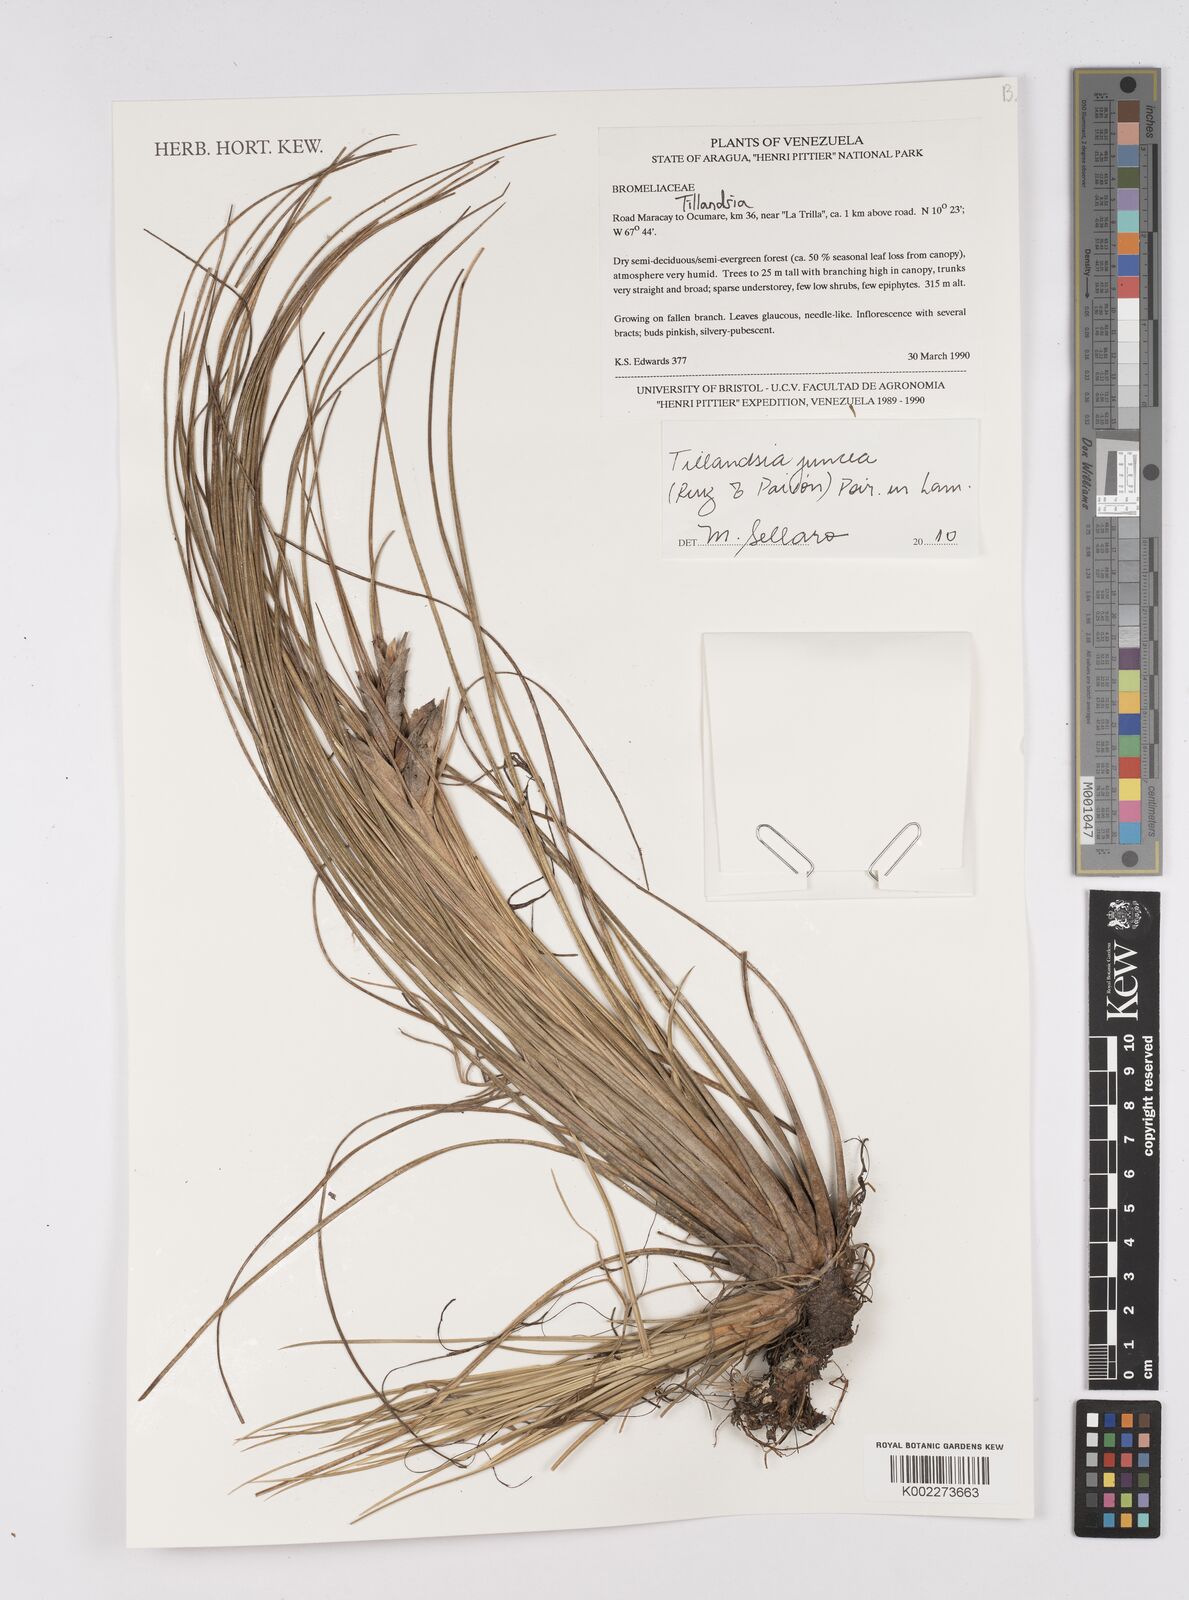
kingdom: Plantae
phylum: Tracheophyta
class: Liliopsida
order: Poales
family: Bromeliaceae
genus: Tillandsia
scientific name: Tillandsia juncea
